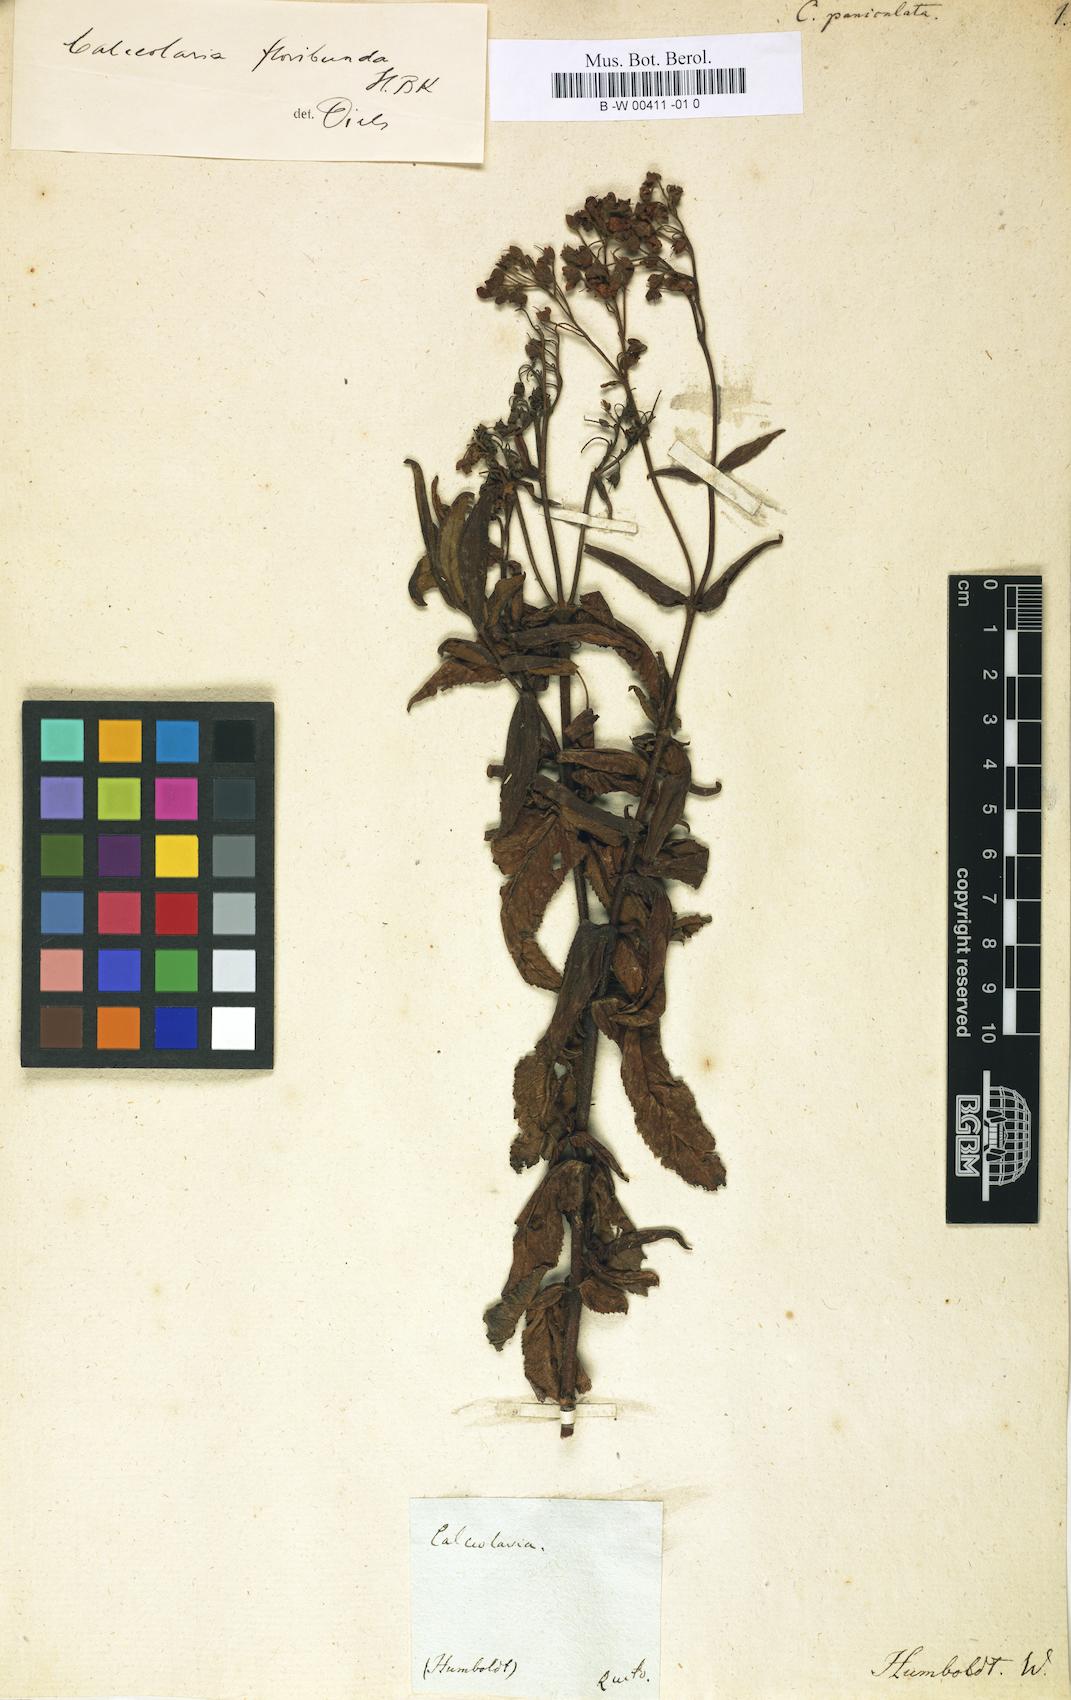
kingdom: Plantae
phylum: Tracheophyta
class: Magnoliopsida
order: Lamiales
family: Calceolariaceae
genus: Calceolaria
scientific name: Calceolaria crenata
